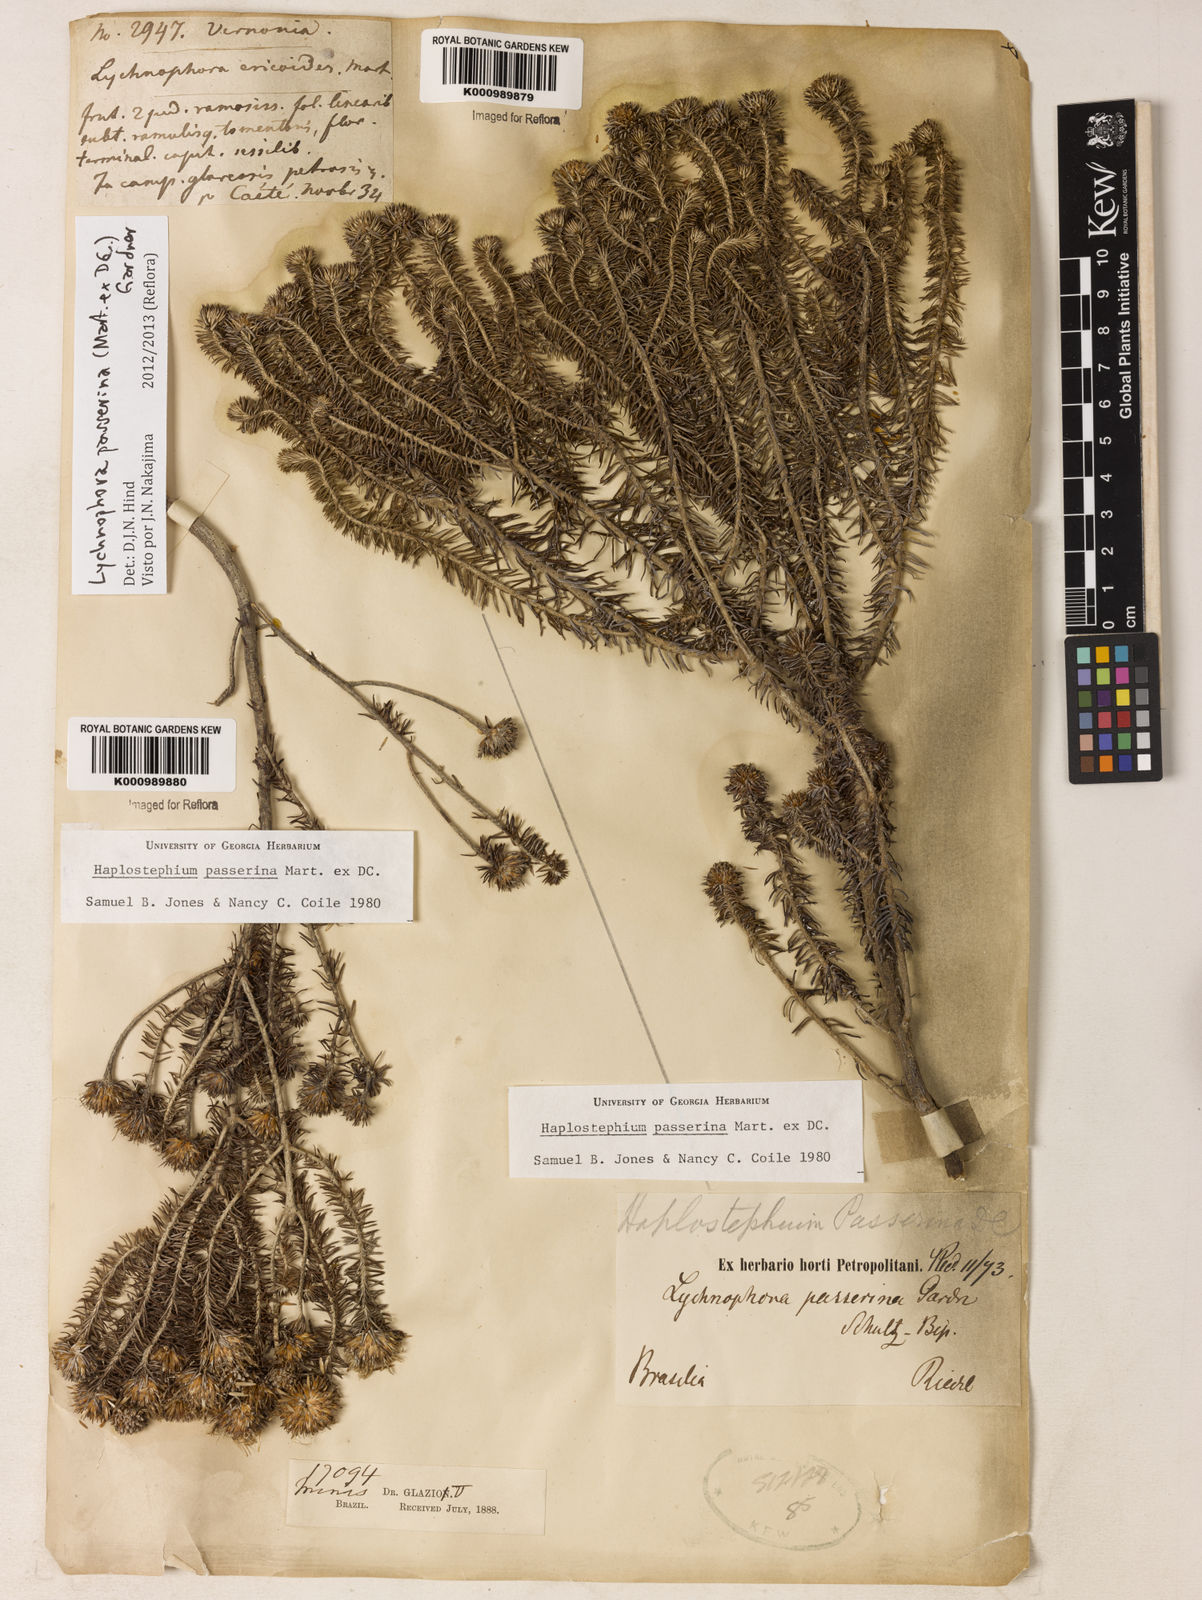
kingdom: Plantae
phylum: Tracheophyta
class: Magnoliopsida
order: Asterales
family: Asteraceae
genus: Lychnophora
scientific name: Lychnophora passerina
